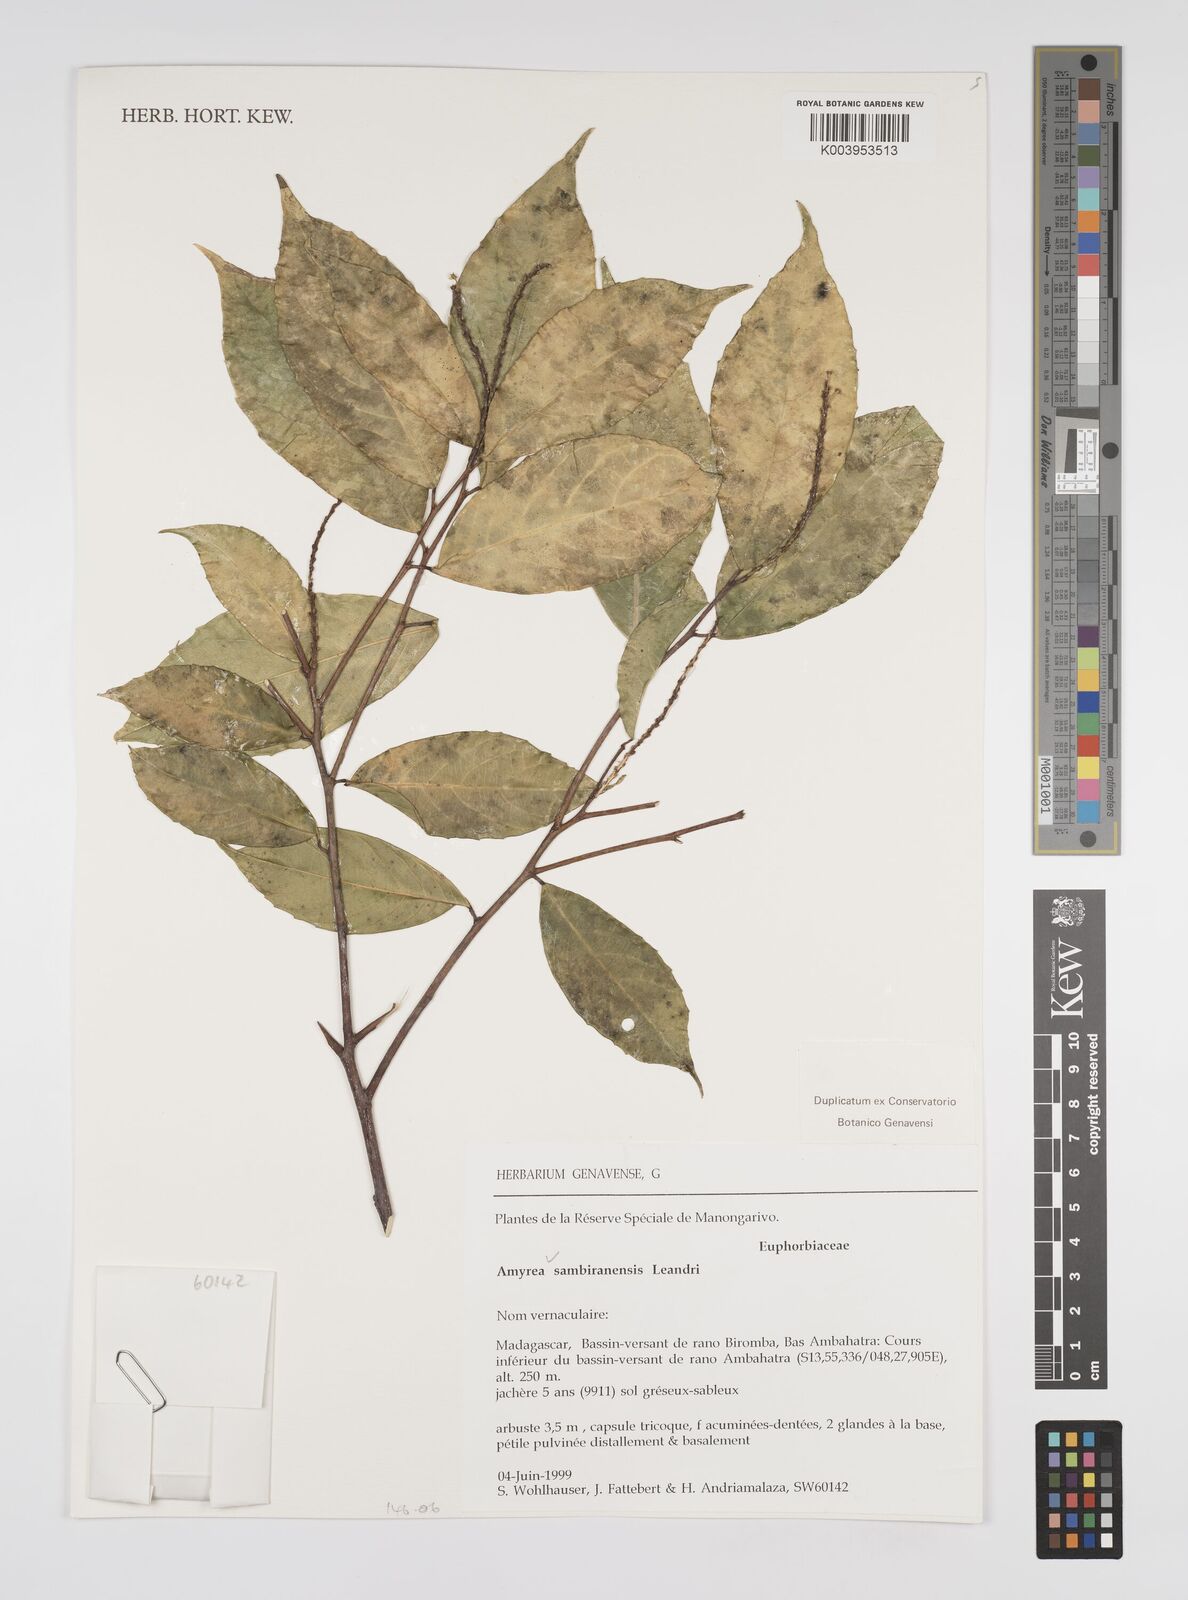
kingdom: Plantae
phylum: Tracheophyta
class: Magnoliopsida
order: Malpighiales
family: Euphorbiaceae
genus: Amyrea
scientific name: Amyrea sambiranensis
